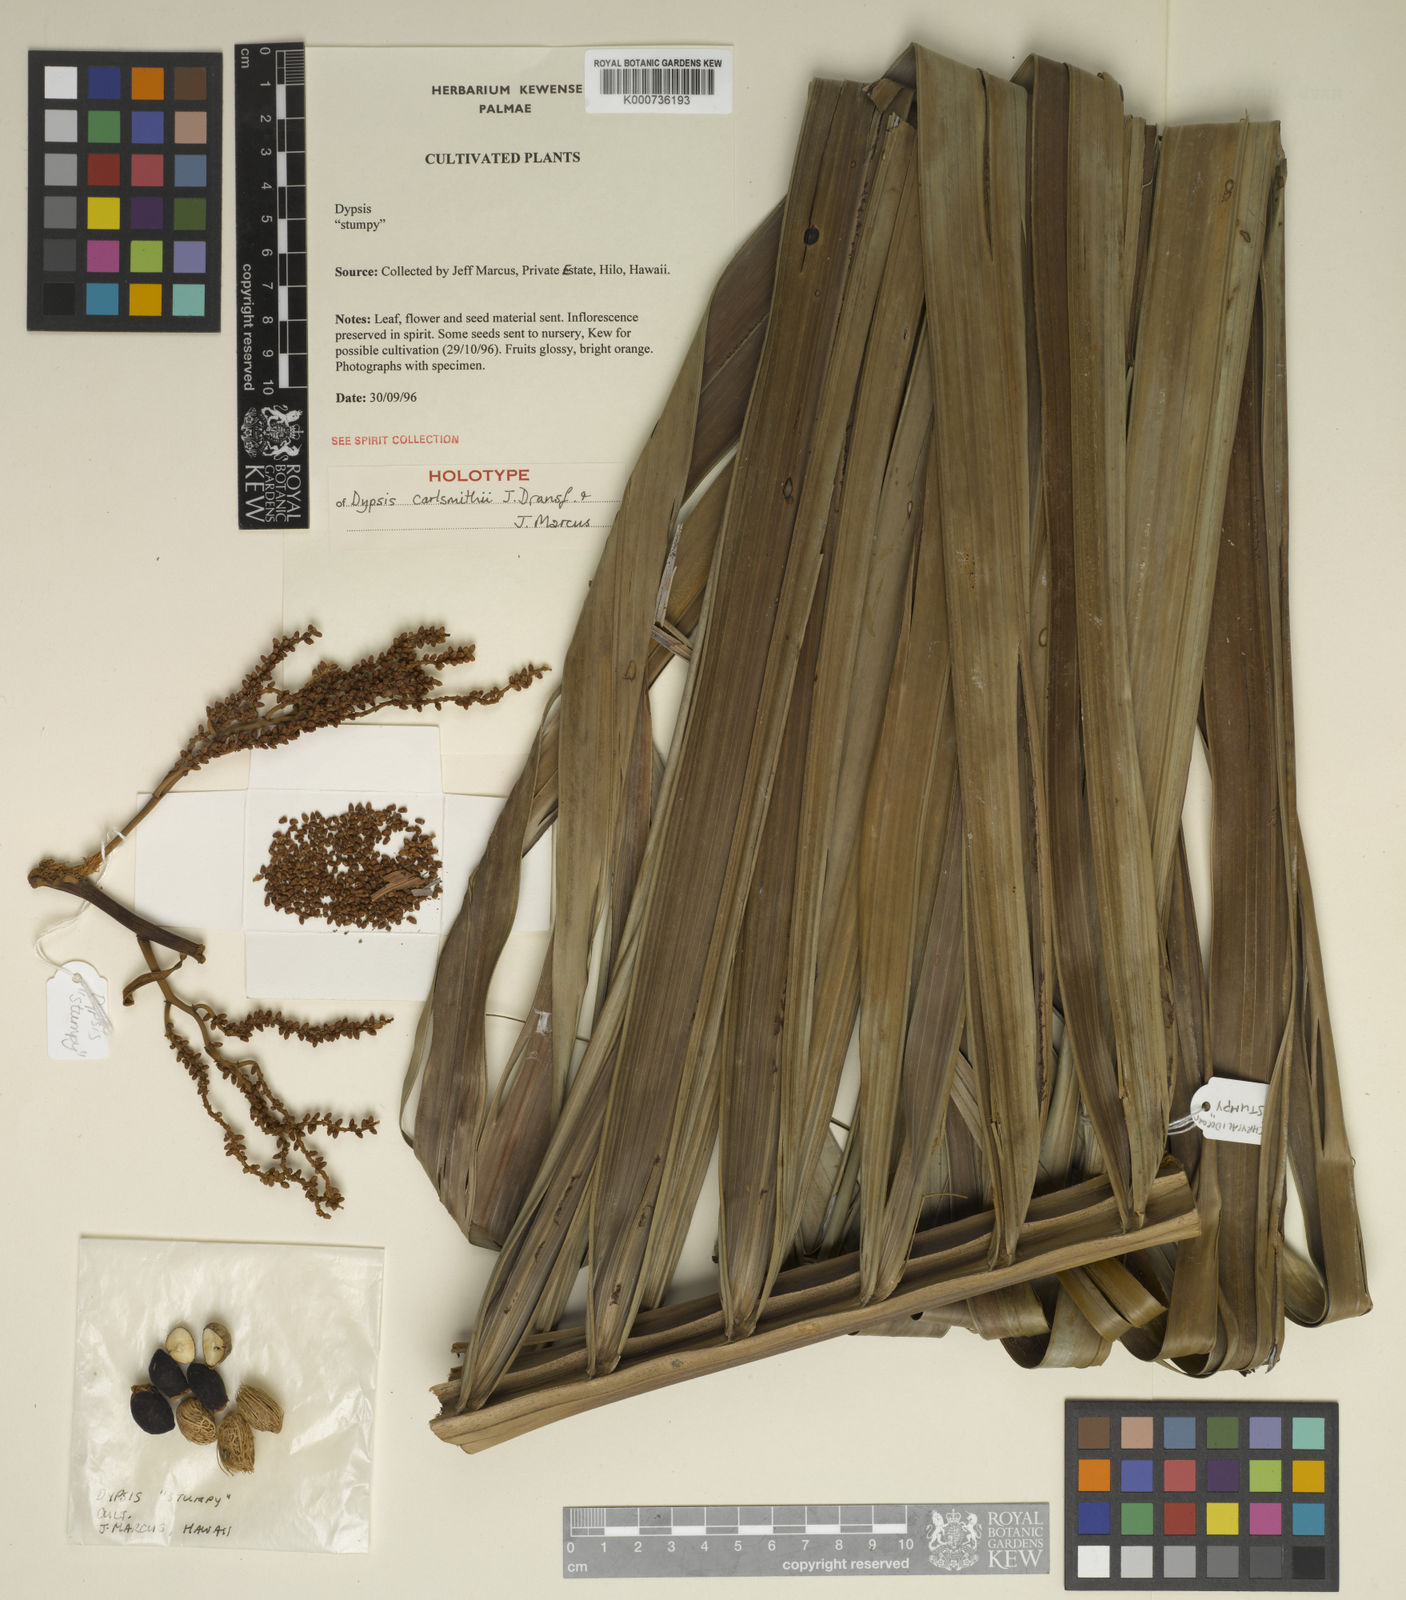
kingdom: Plantae
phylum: Tracheophyta
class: Liliopsida
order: Arecales
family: Arecaceae
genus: Dypsis
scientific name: Dypsis carlsmithii
